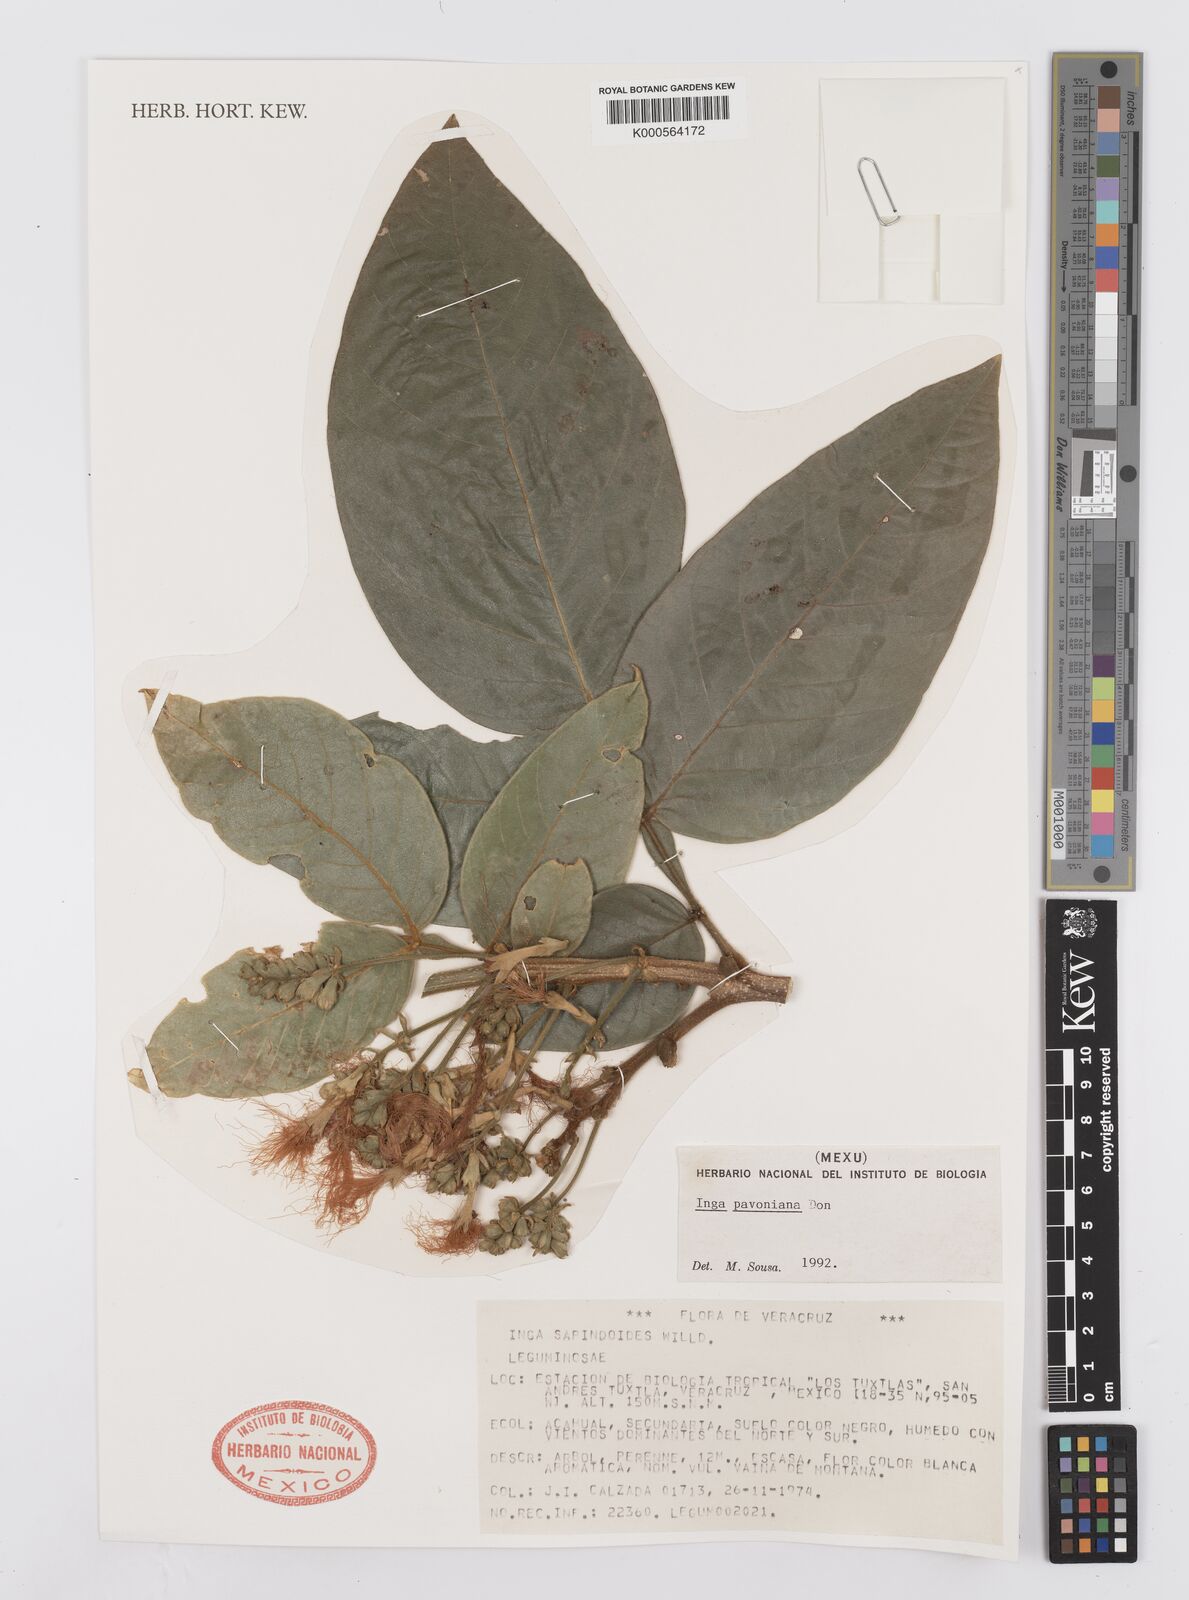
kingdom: Plantae
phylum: Tracheophyta
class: Magnoliopsida
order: Fabales
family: Fabaceae
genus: Inga
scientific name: Inga sapindoides
